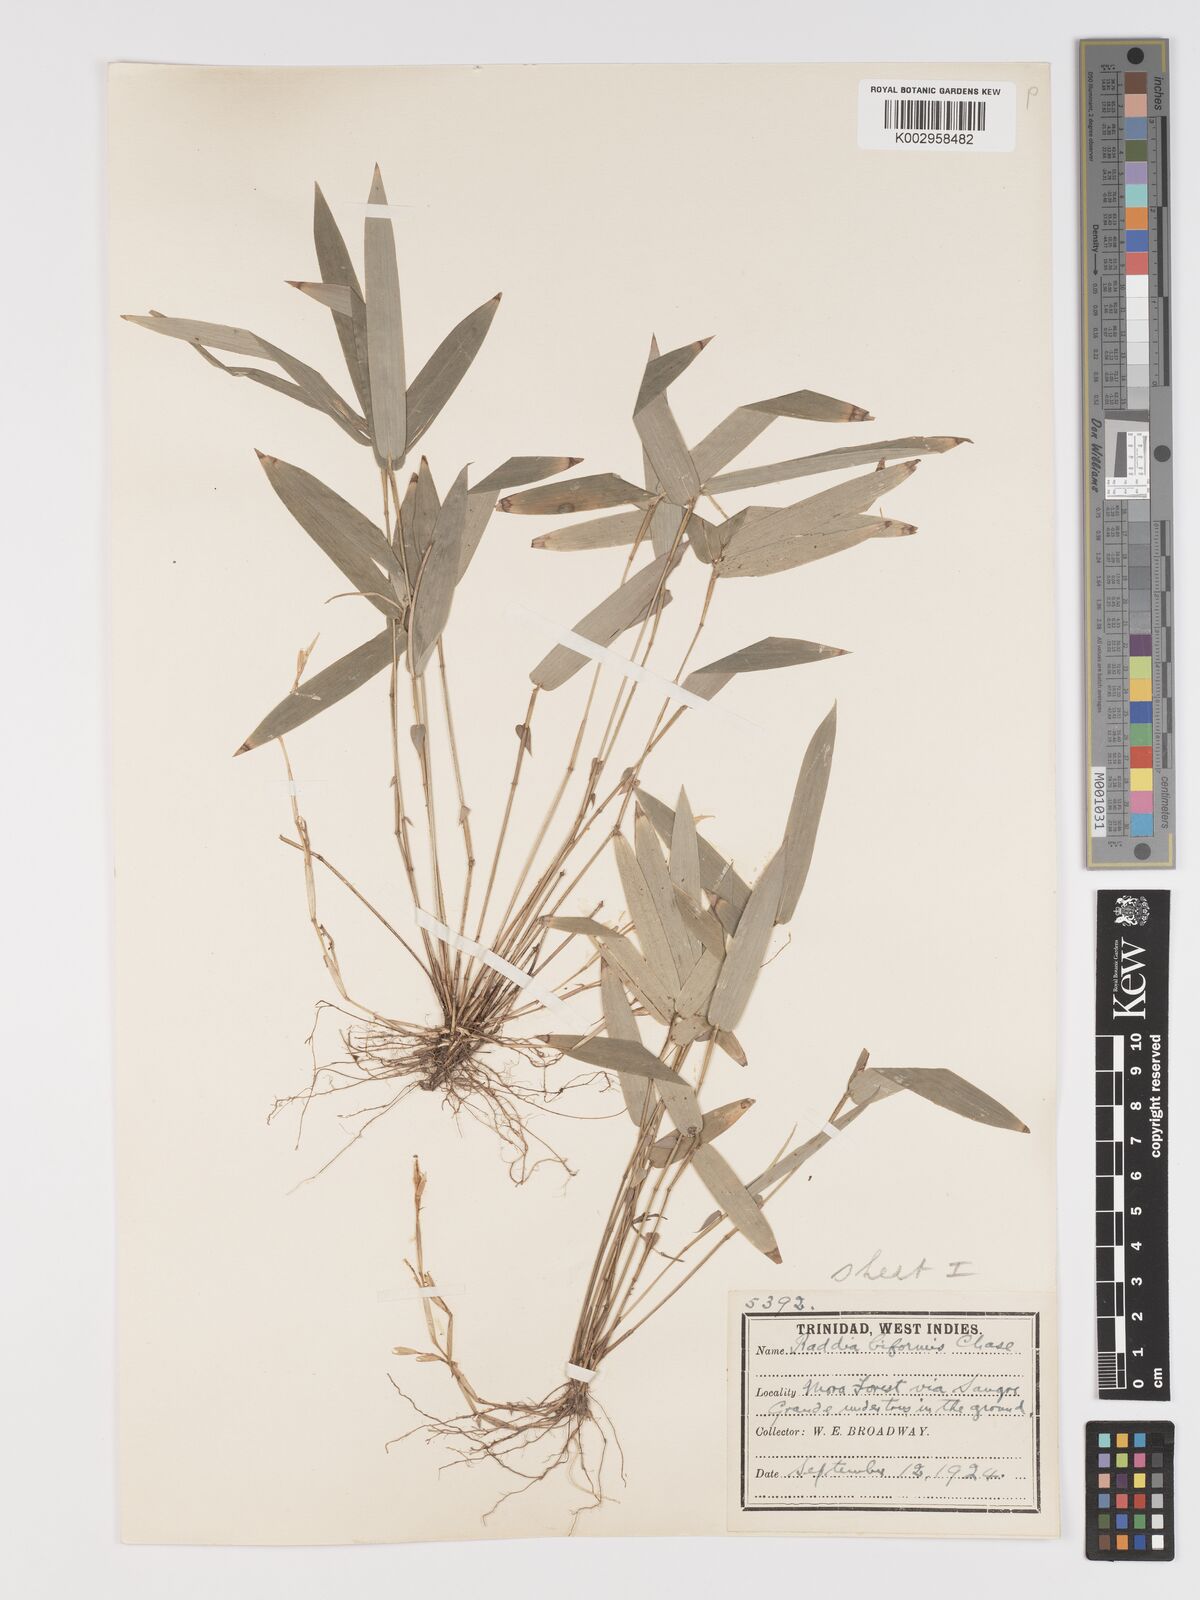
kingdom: Plantae
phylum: Tracheophyta
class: Liliopsida
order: Poales
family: Poaceae
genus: Piresia
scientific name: Piresia sympodica
